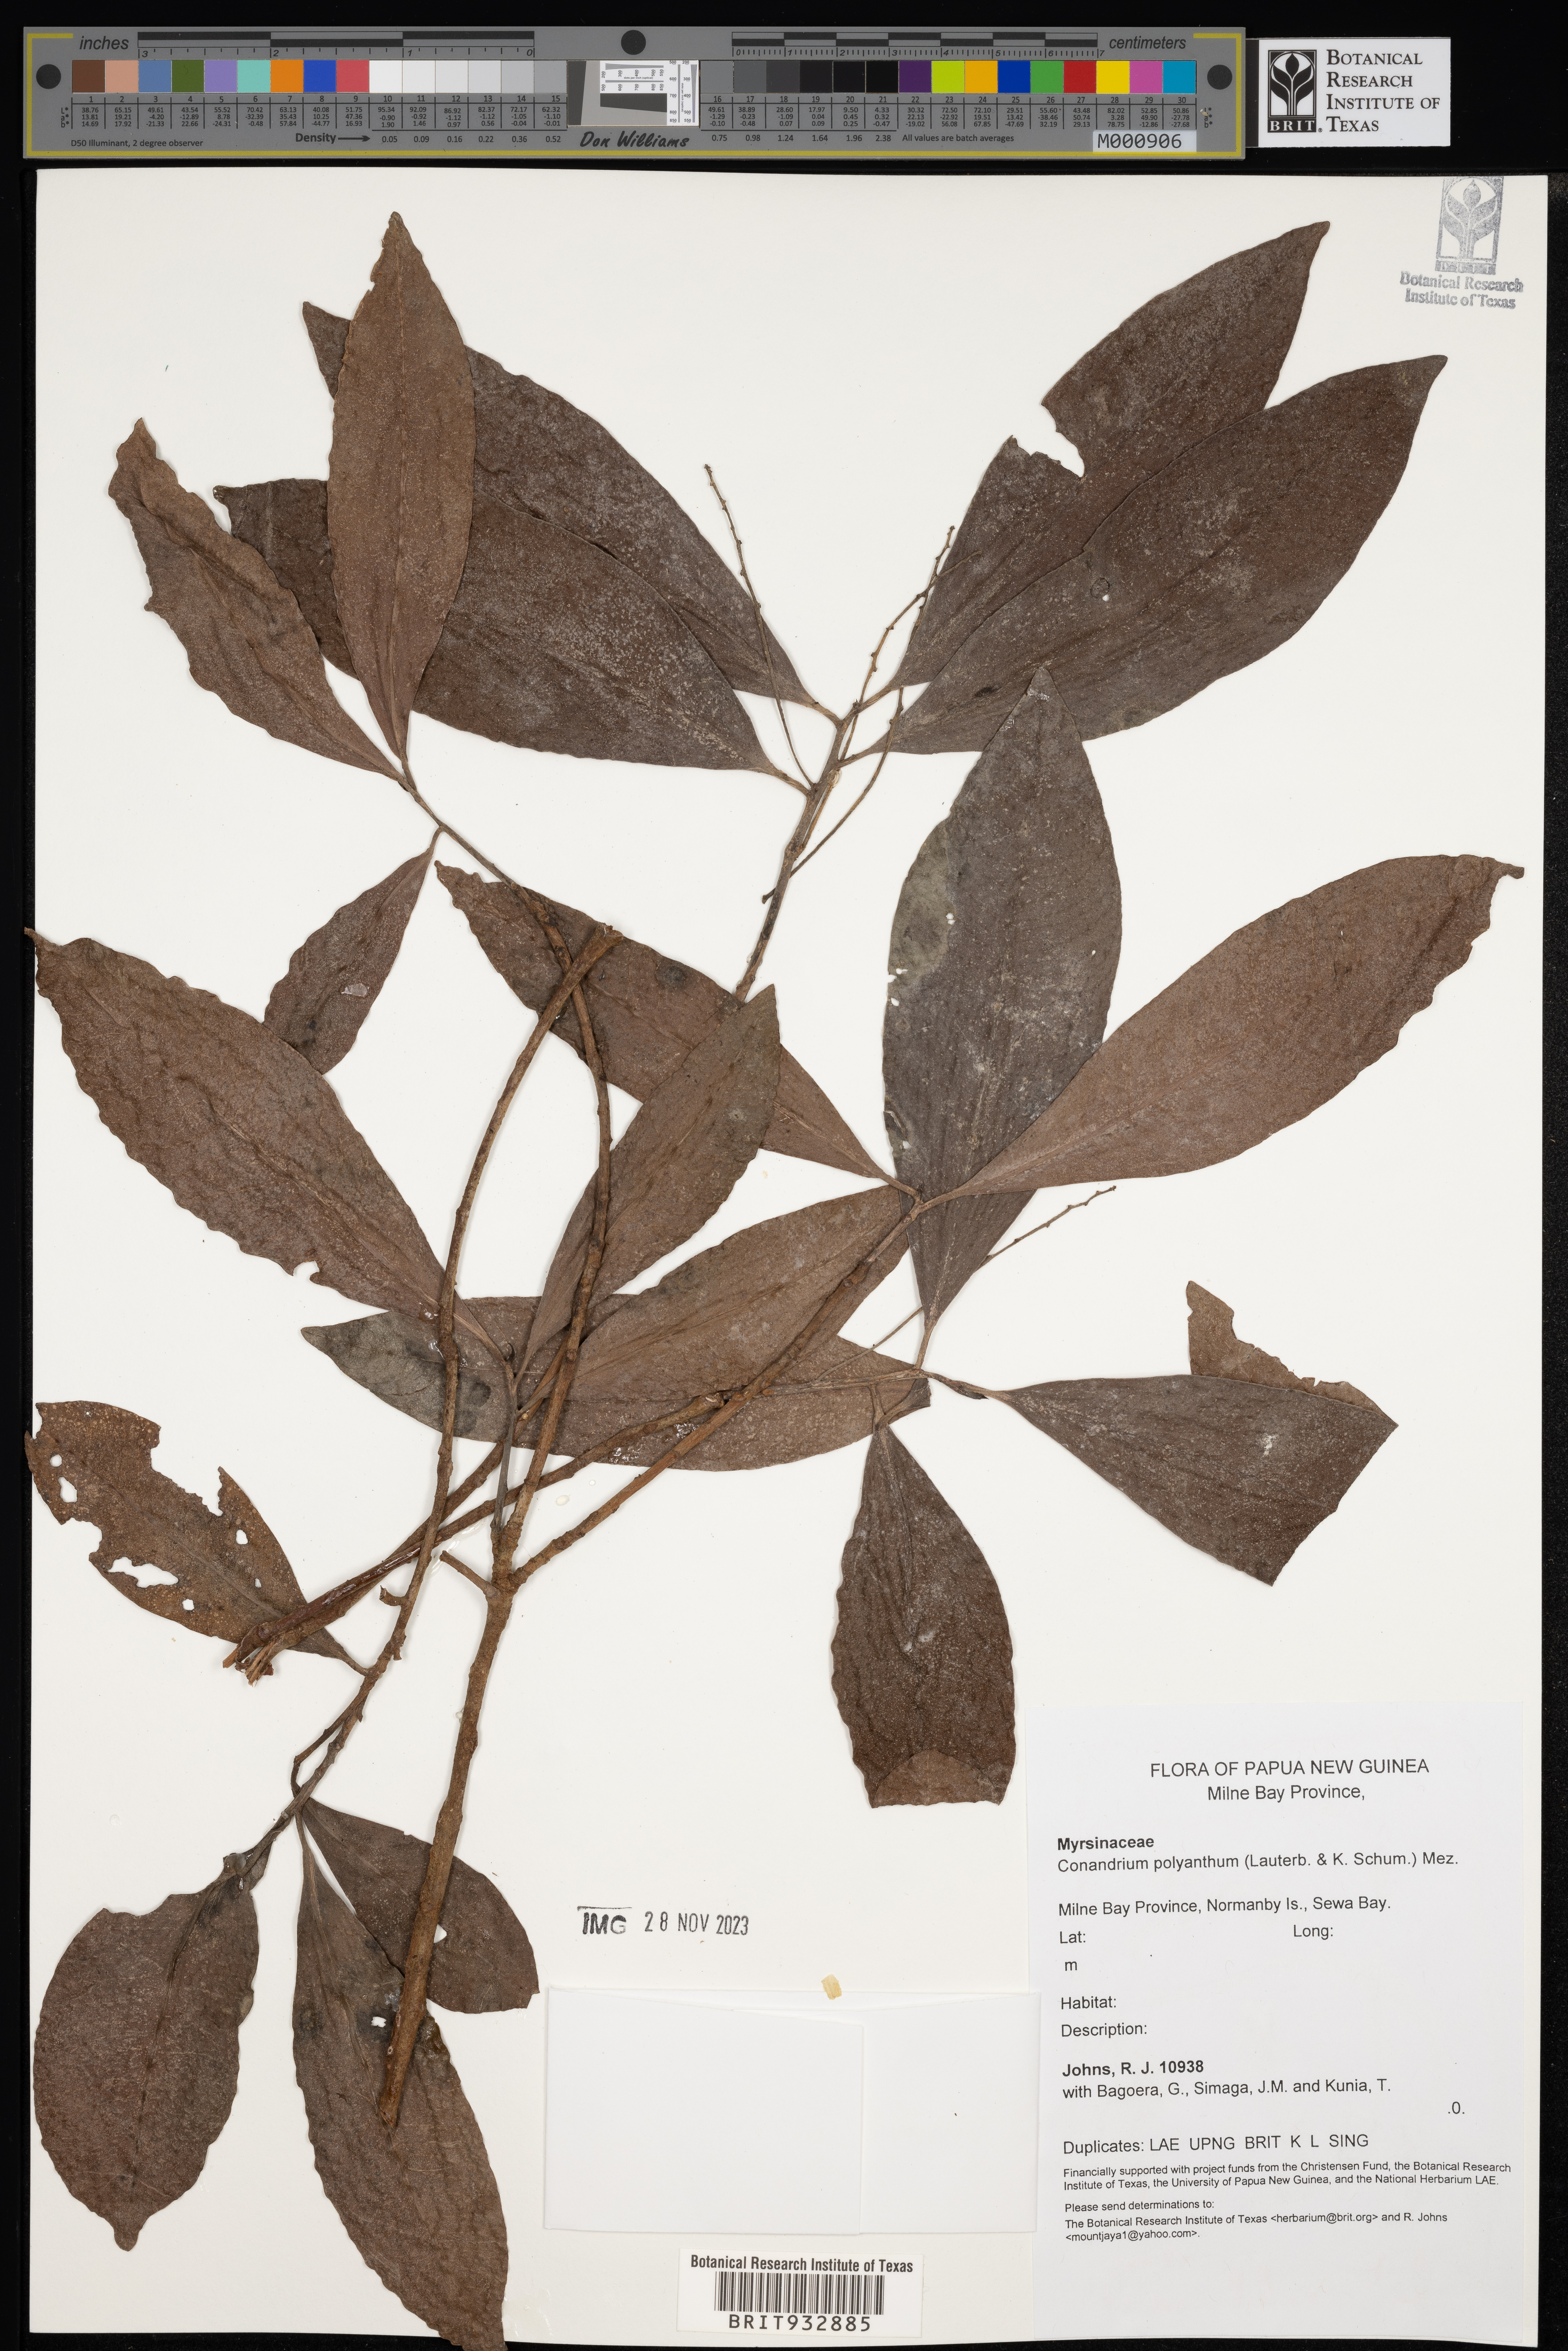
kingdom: Plantae
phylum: Tracheophyta
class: Magnoliopsida
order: Ericales
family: Primulaceae
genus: Conandrium
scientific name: Conandrium
